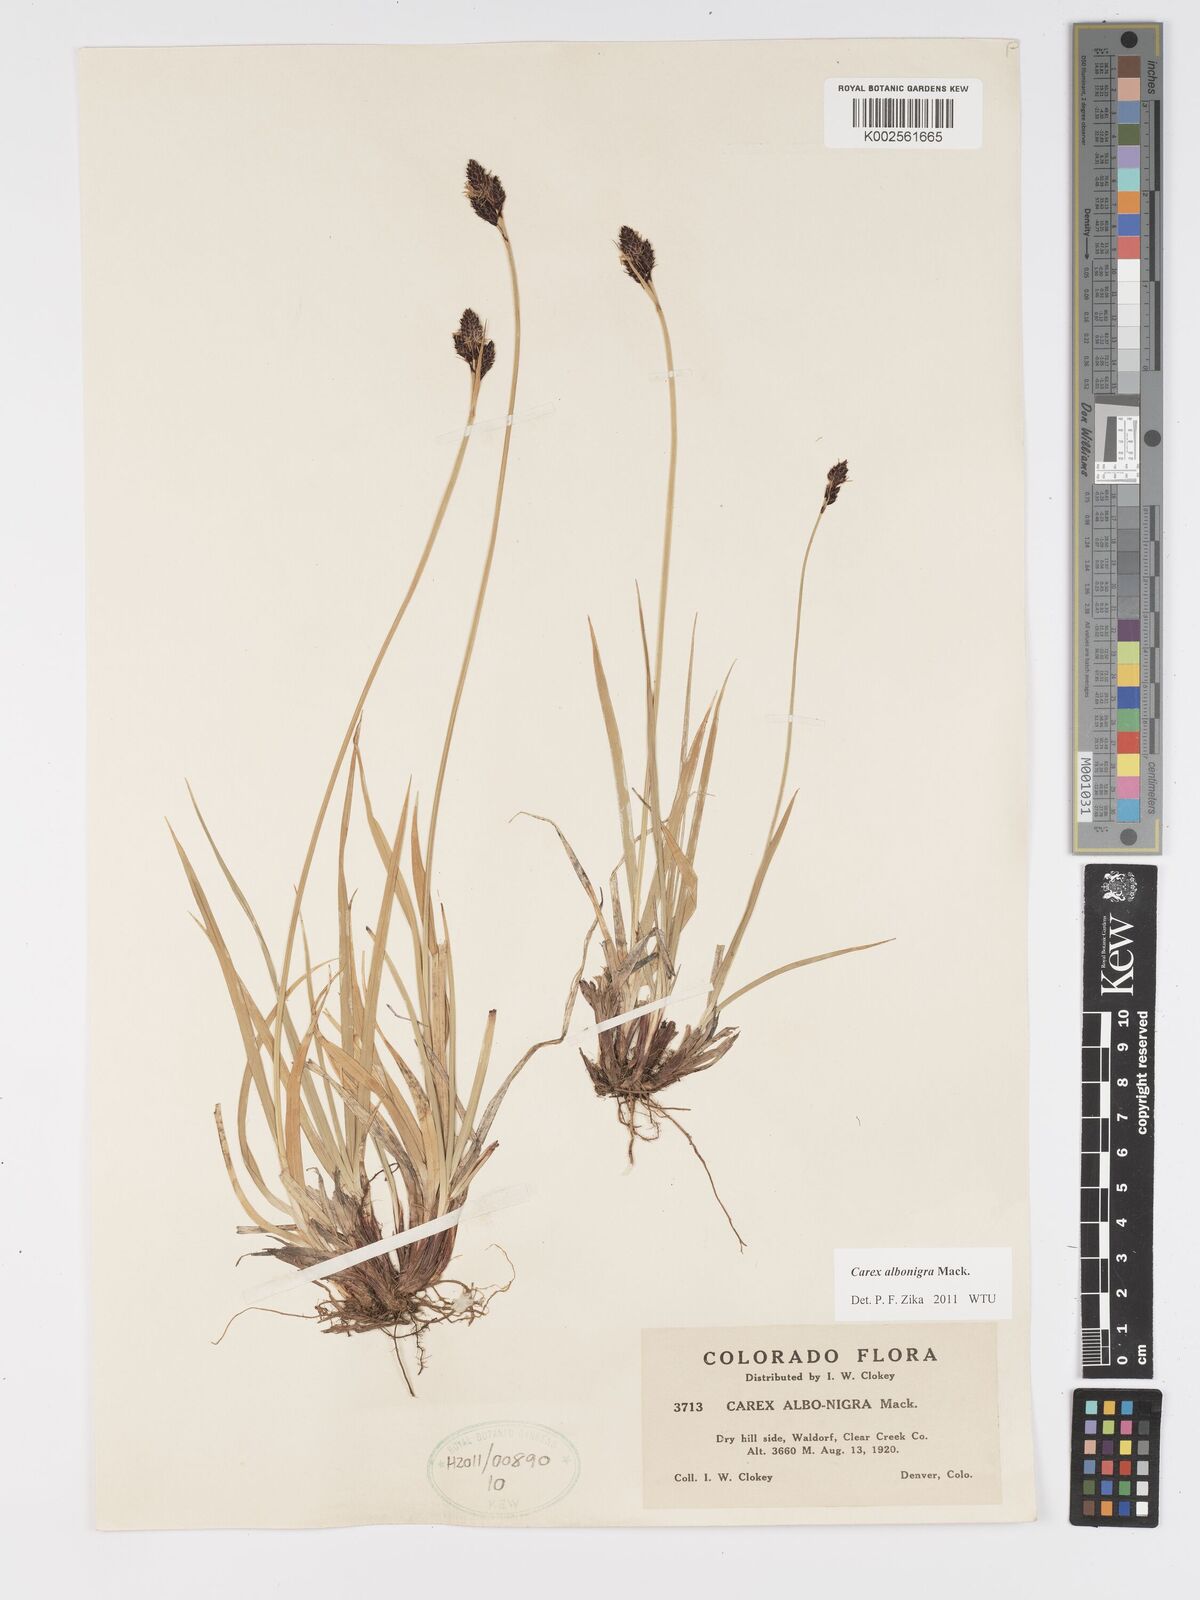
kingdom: Plantae
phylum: Tracheophyta
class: Liliopsida
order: Poales
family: Cyperaceae
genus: Carex
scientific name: Carex albonigra
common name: Black-and-white sedge
